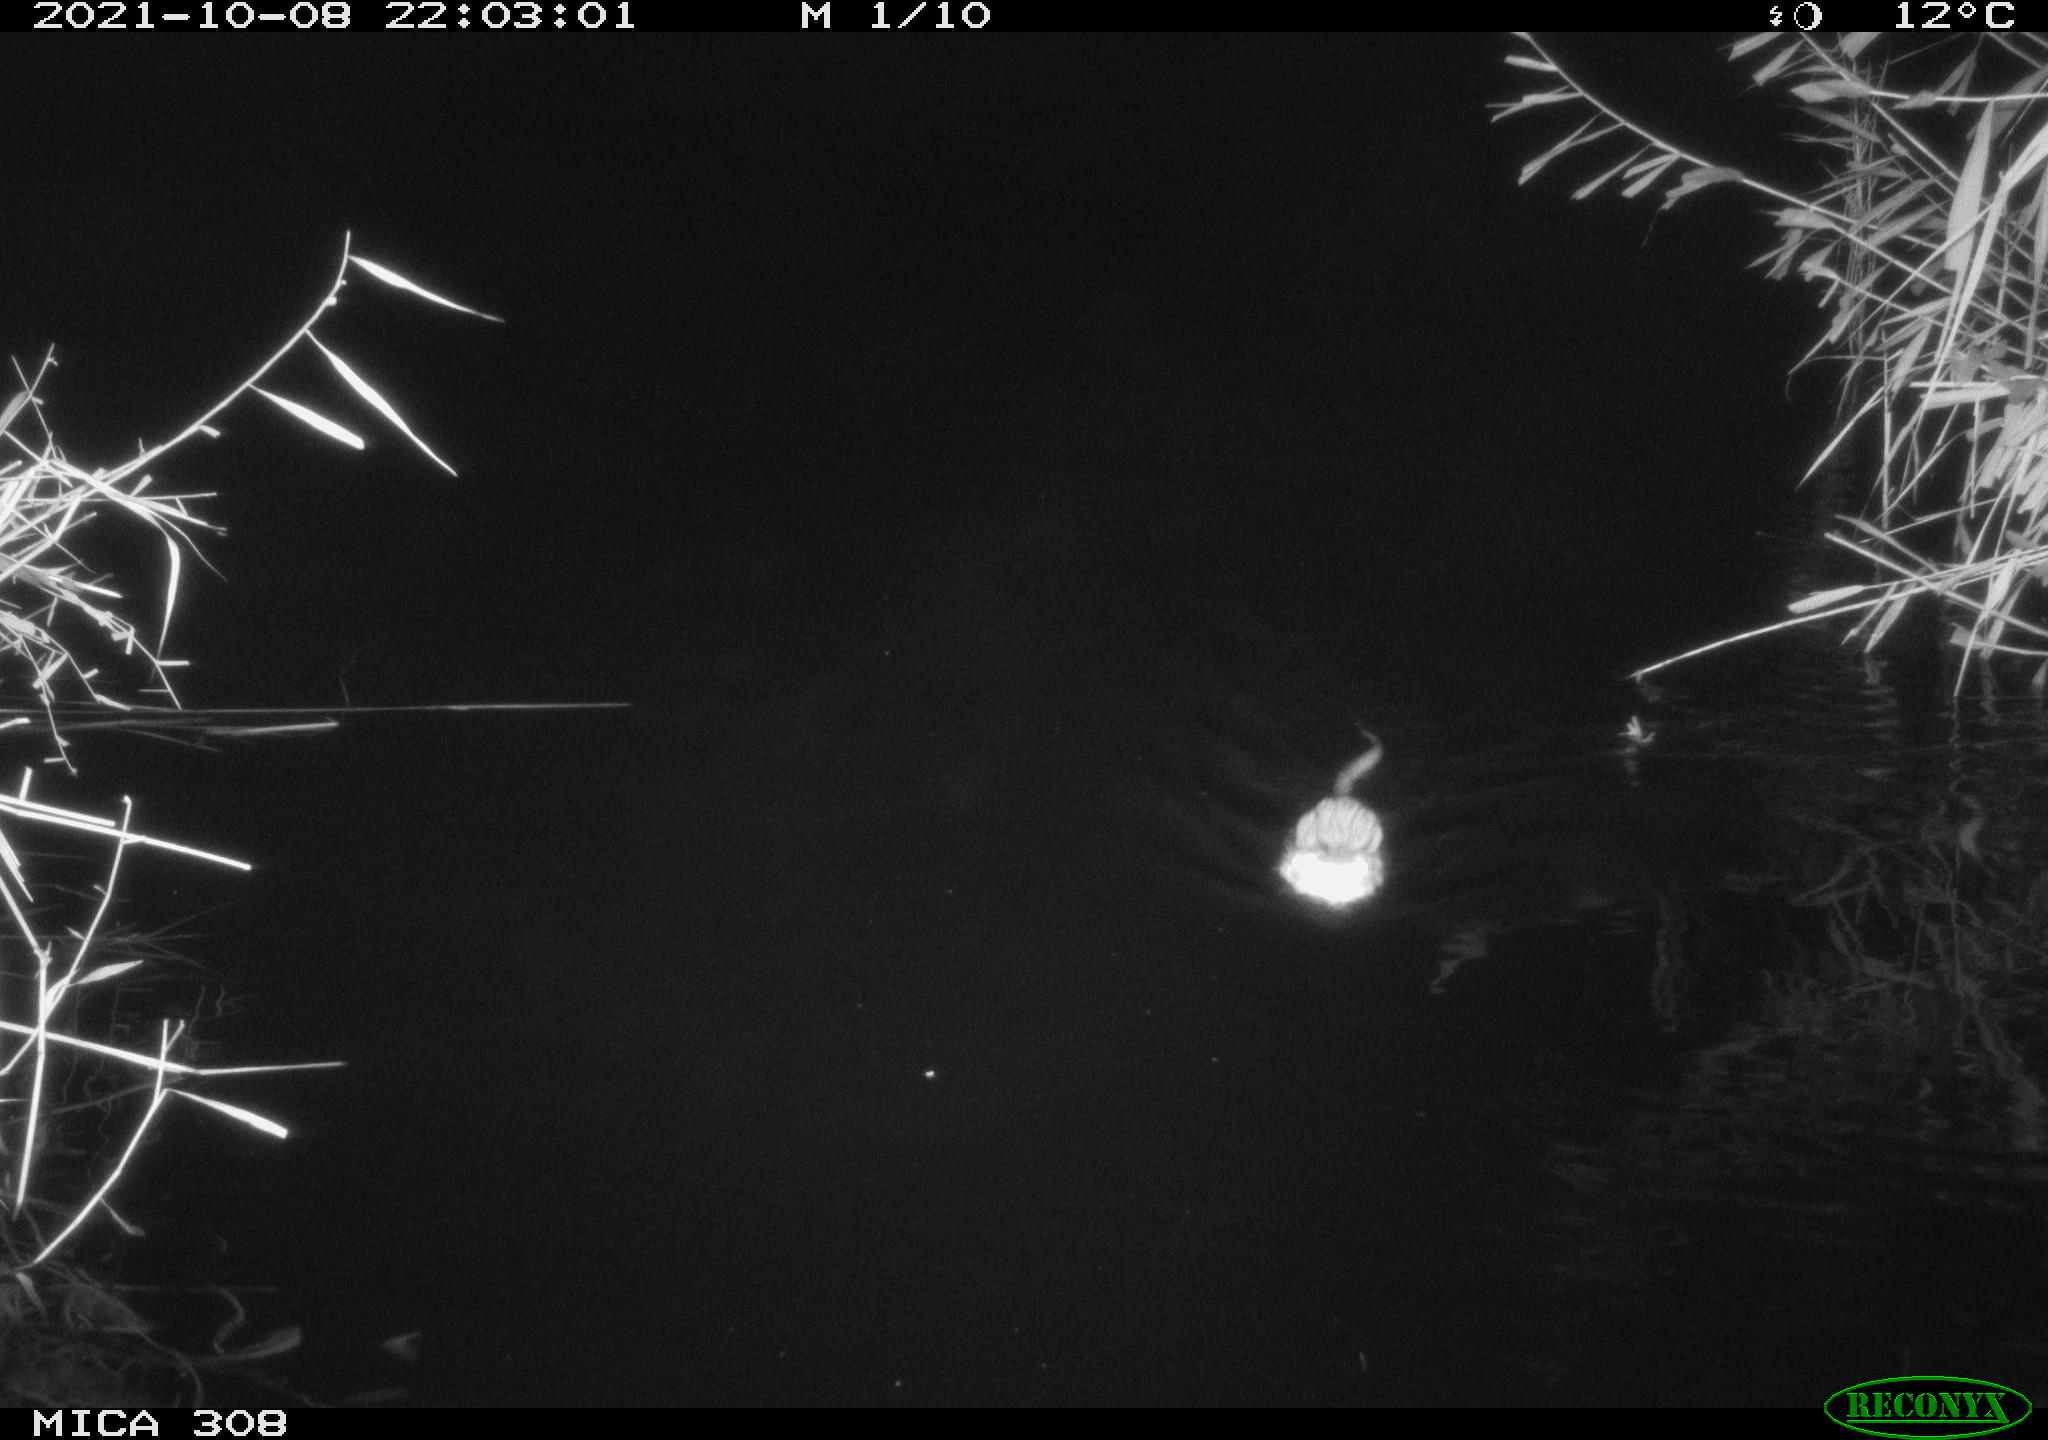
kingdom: Animalia
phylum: Chordata
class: Mammalia
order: Rodentia
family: Cricetidae
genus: Ondatra
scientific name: Ondatra zibethicus
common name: Muskrat
